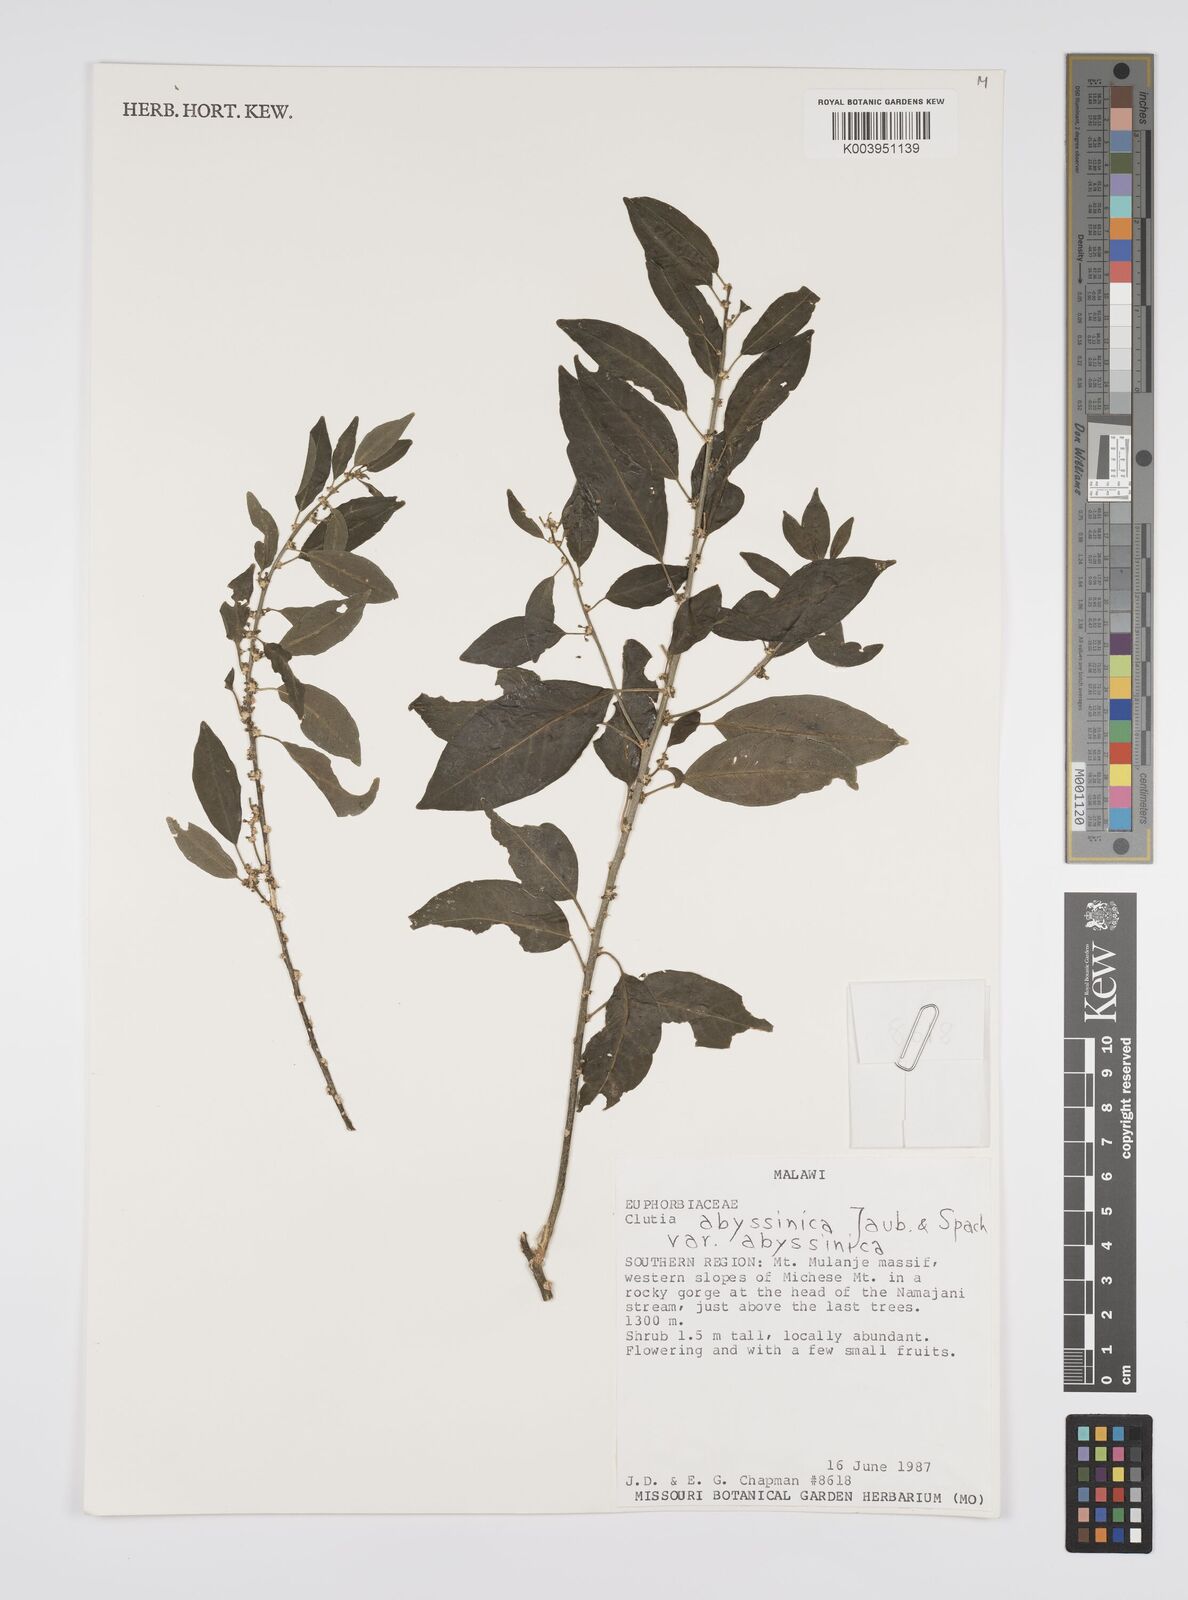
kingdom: Plantae
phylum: Tracheophyta
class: Magnoliopsida
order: Malpighiales
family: Peraceae
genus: Clutia
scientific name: Clutia abyssinica
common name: Large lightning bush
